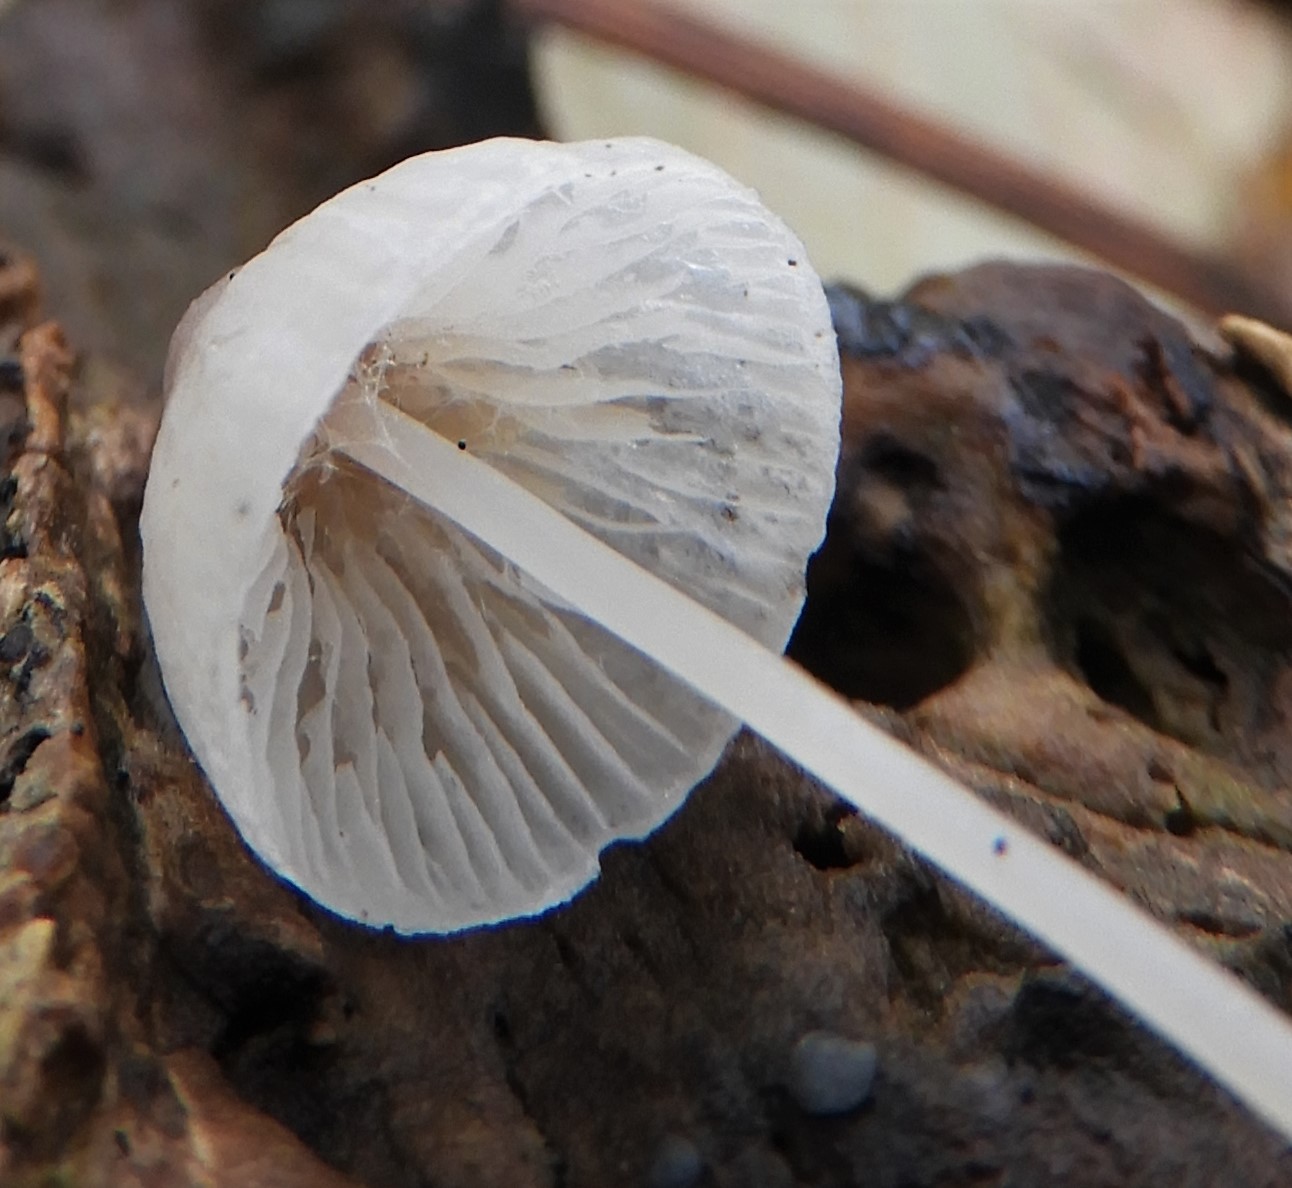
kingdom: Fungi
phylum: Basidiomycota
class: Agaricomycetes
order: Agaricales
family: Mycenaceae
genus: Mycena
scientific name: Mycena vitilis
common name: blankstokket huesvamp
